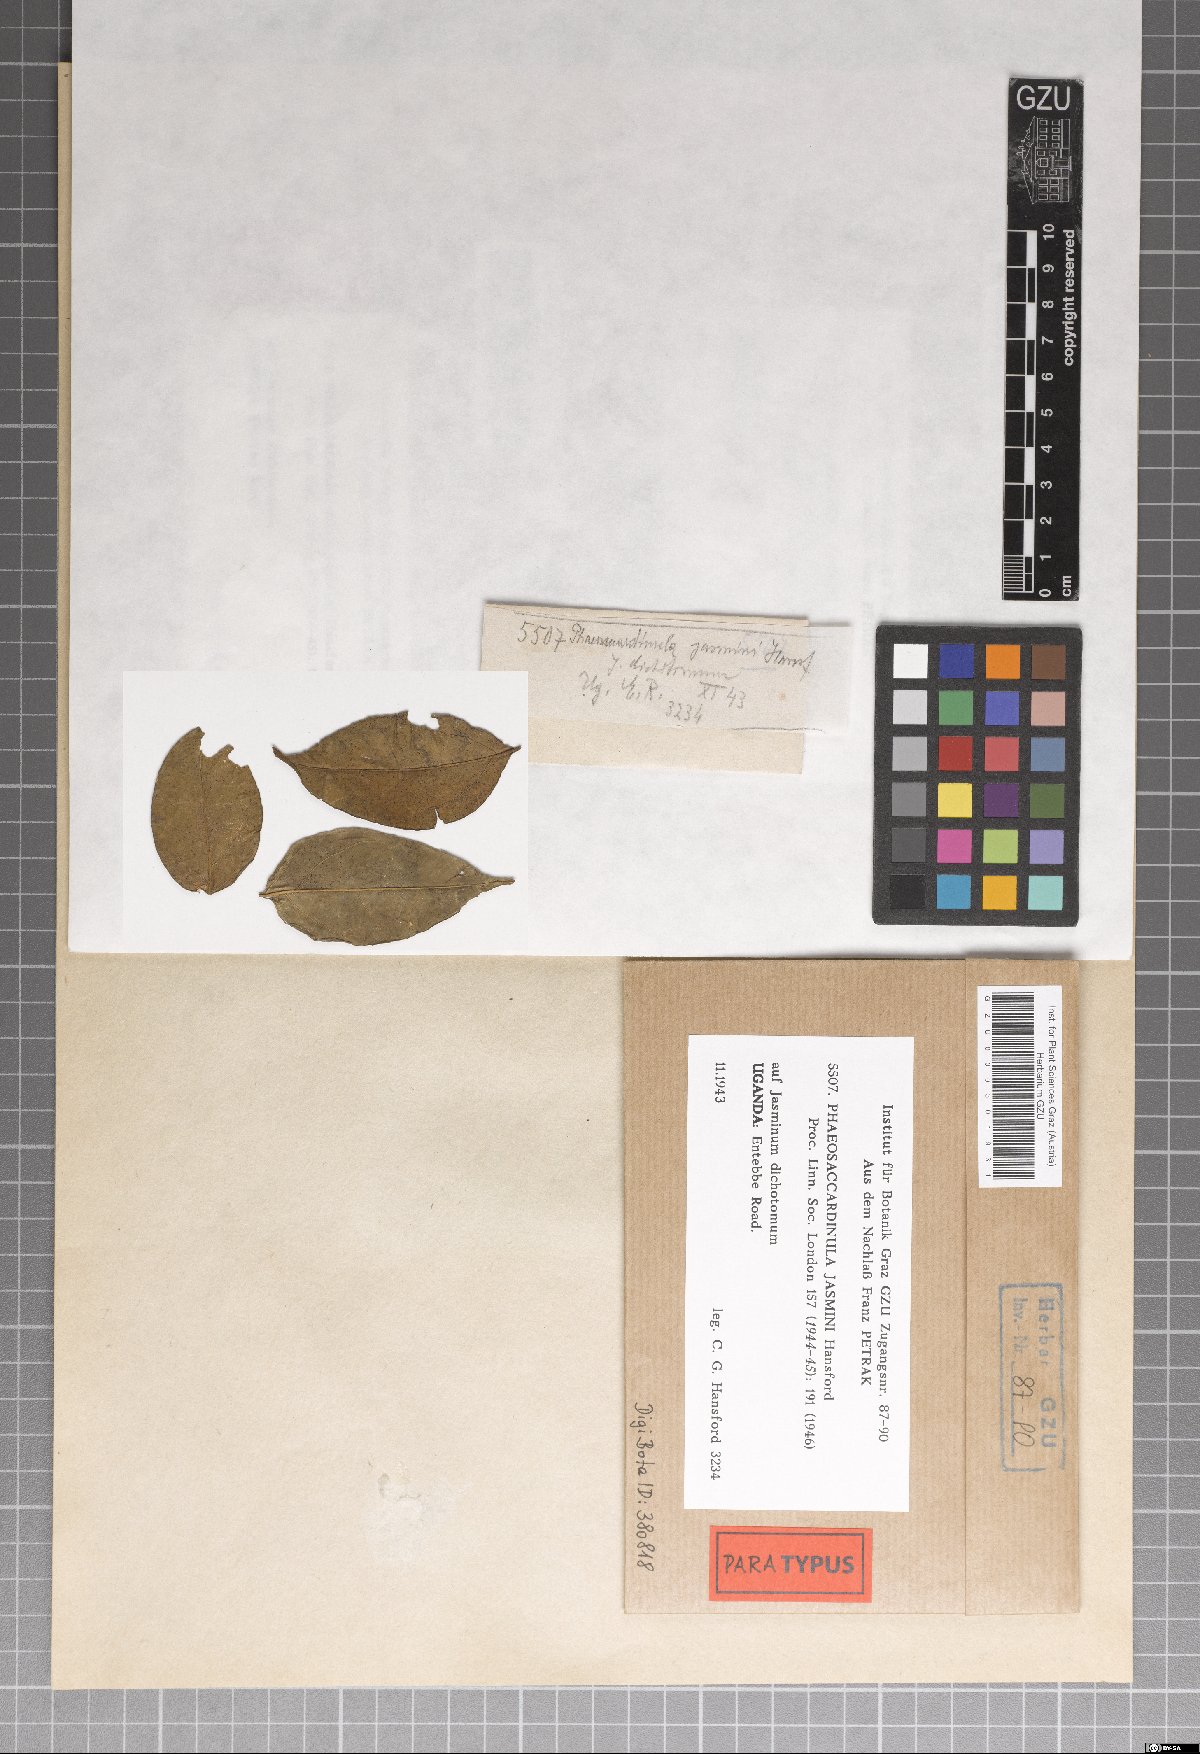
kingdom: Fungi
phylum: Ascomycota
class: Eurotiomycetes
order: Chaetothyriales
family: Chaetothyriaceae
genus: Phaeosaccardinula
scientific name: Phaeosaccardinula jasmini
